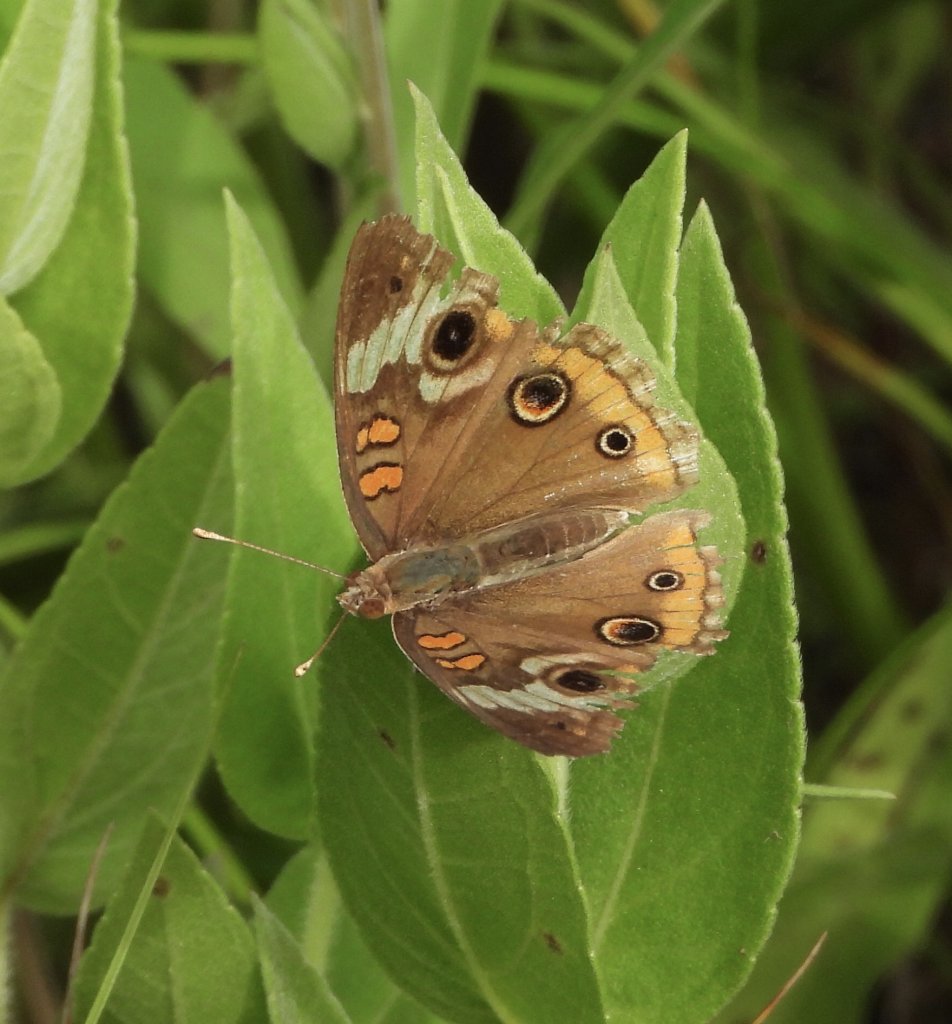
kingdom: Animalia
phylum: Arthropoda
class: Insecta
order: Lepidoptera
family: Nymphalidae
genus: Junonia
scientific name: Junonia coenia
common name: Common Buckeye
